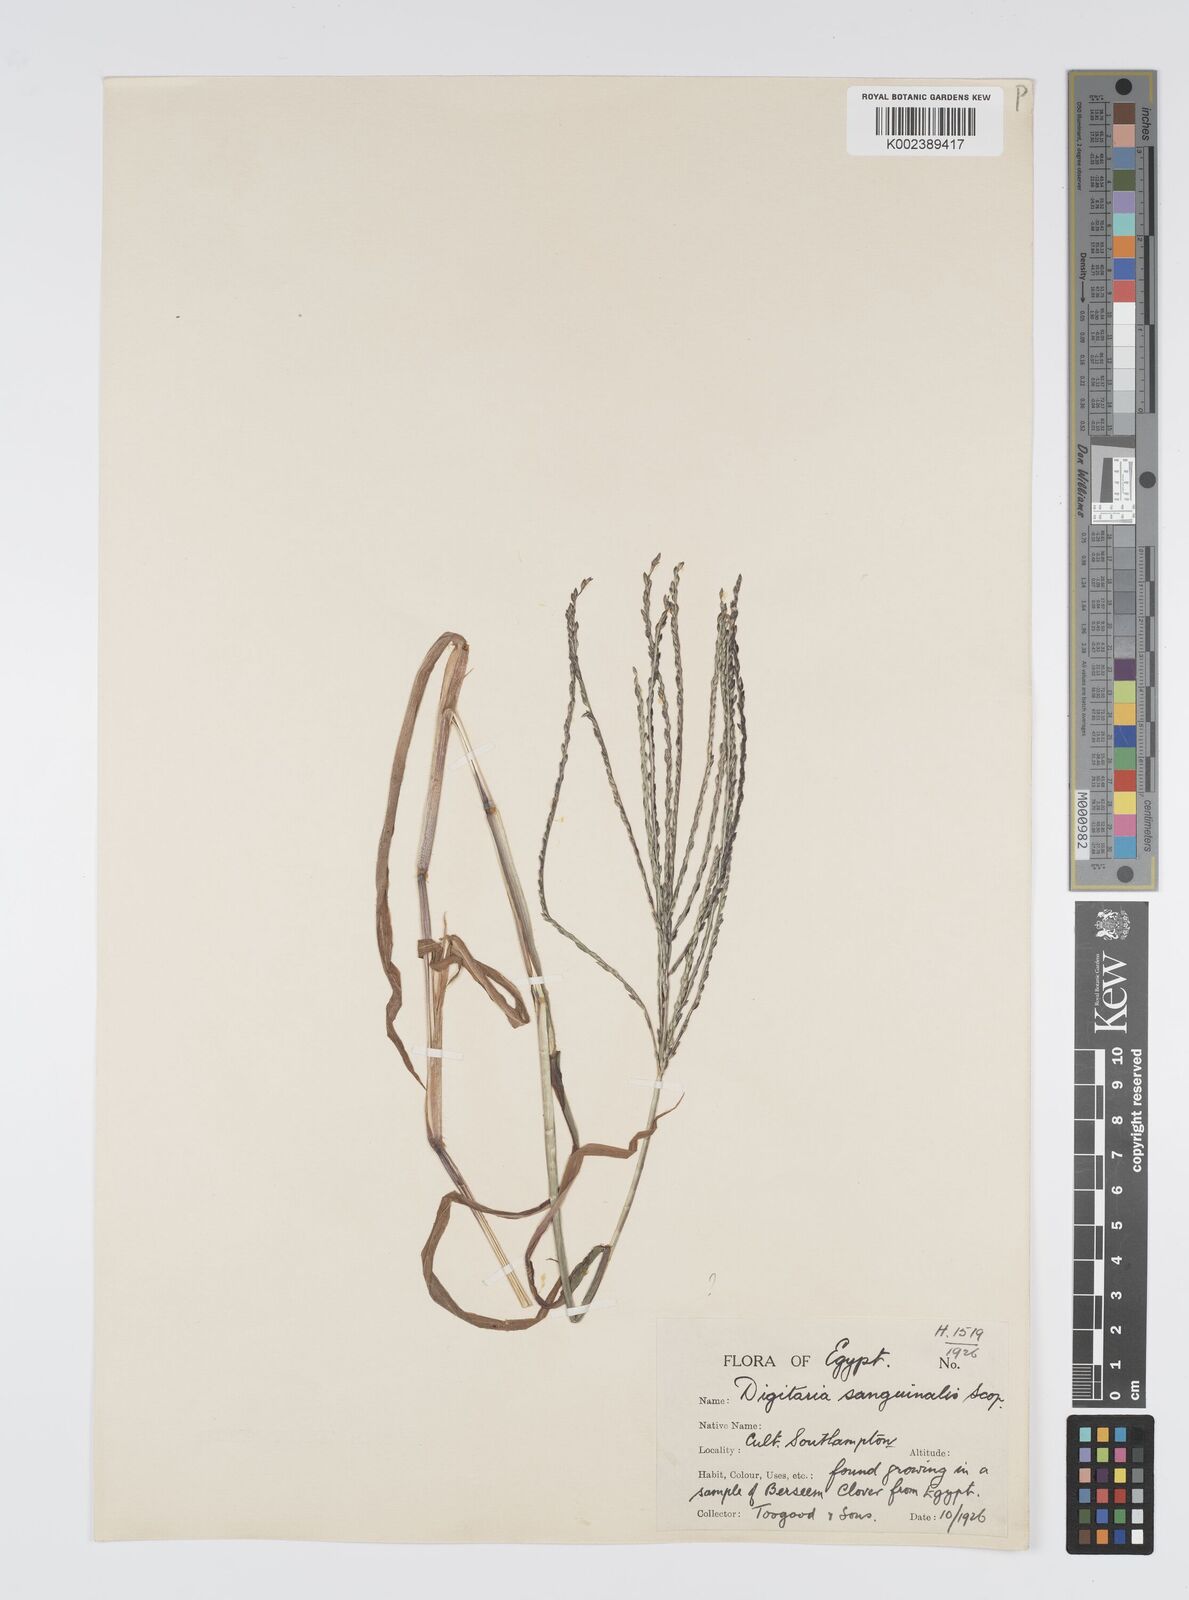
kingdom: Plantae
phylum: Tracheophyta
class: Liliopsida
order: Poales
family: Poaceae
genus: Digitaria
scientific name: Digitaria sanguinalis
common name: Hairy crabgrass
